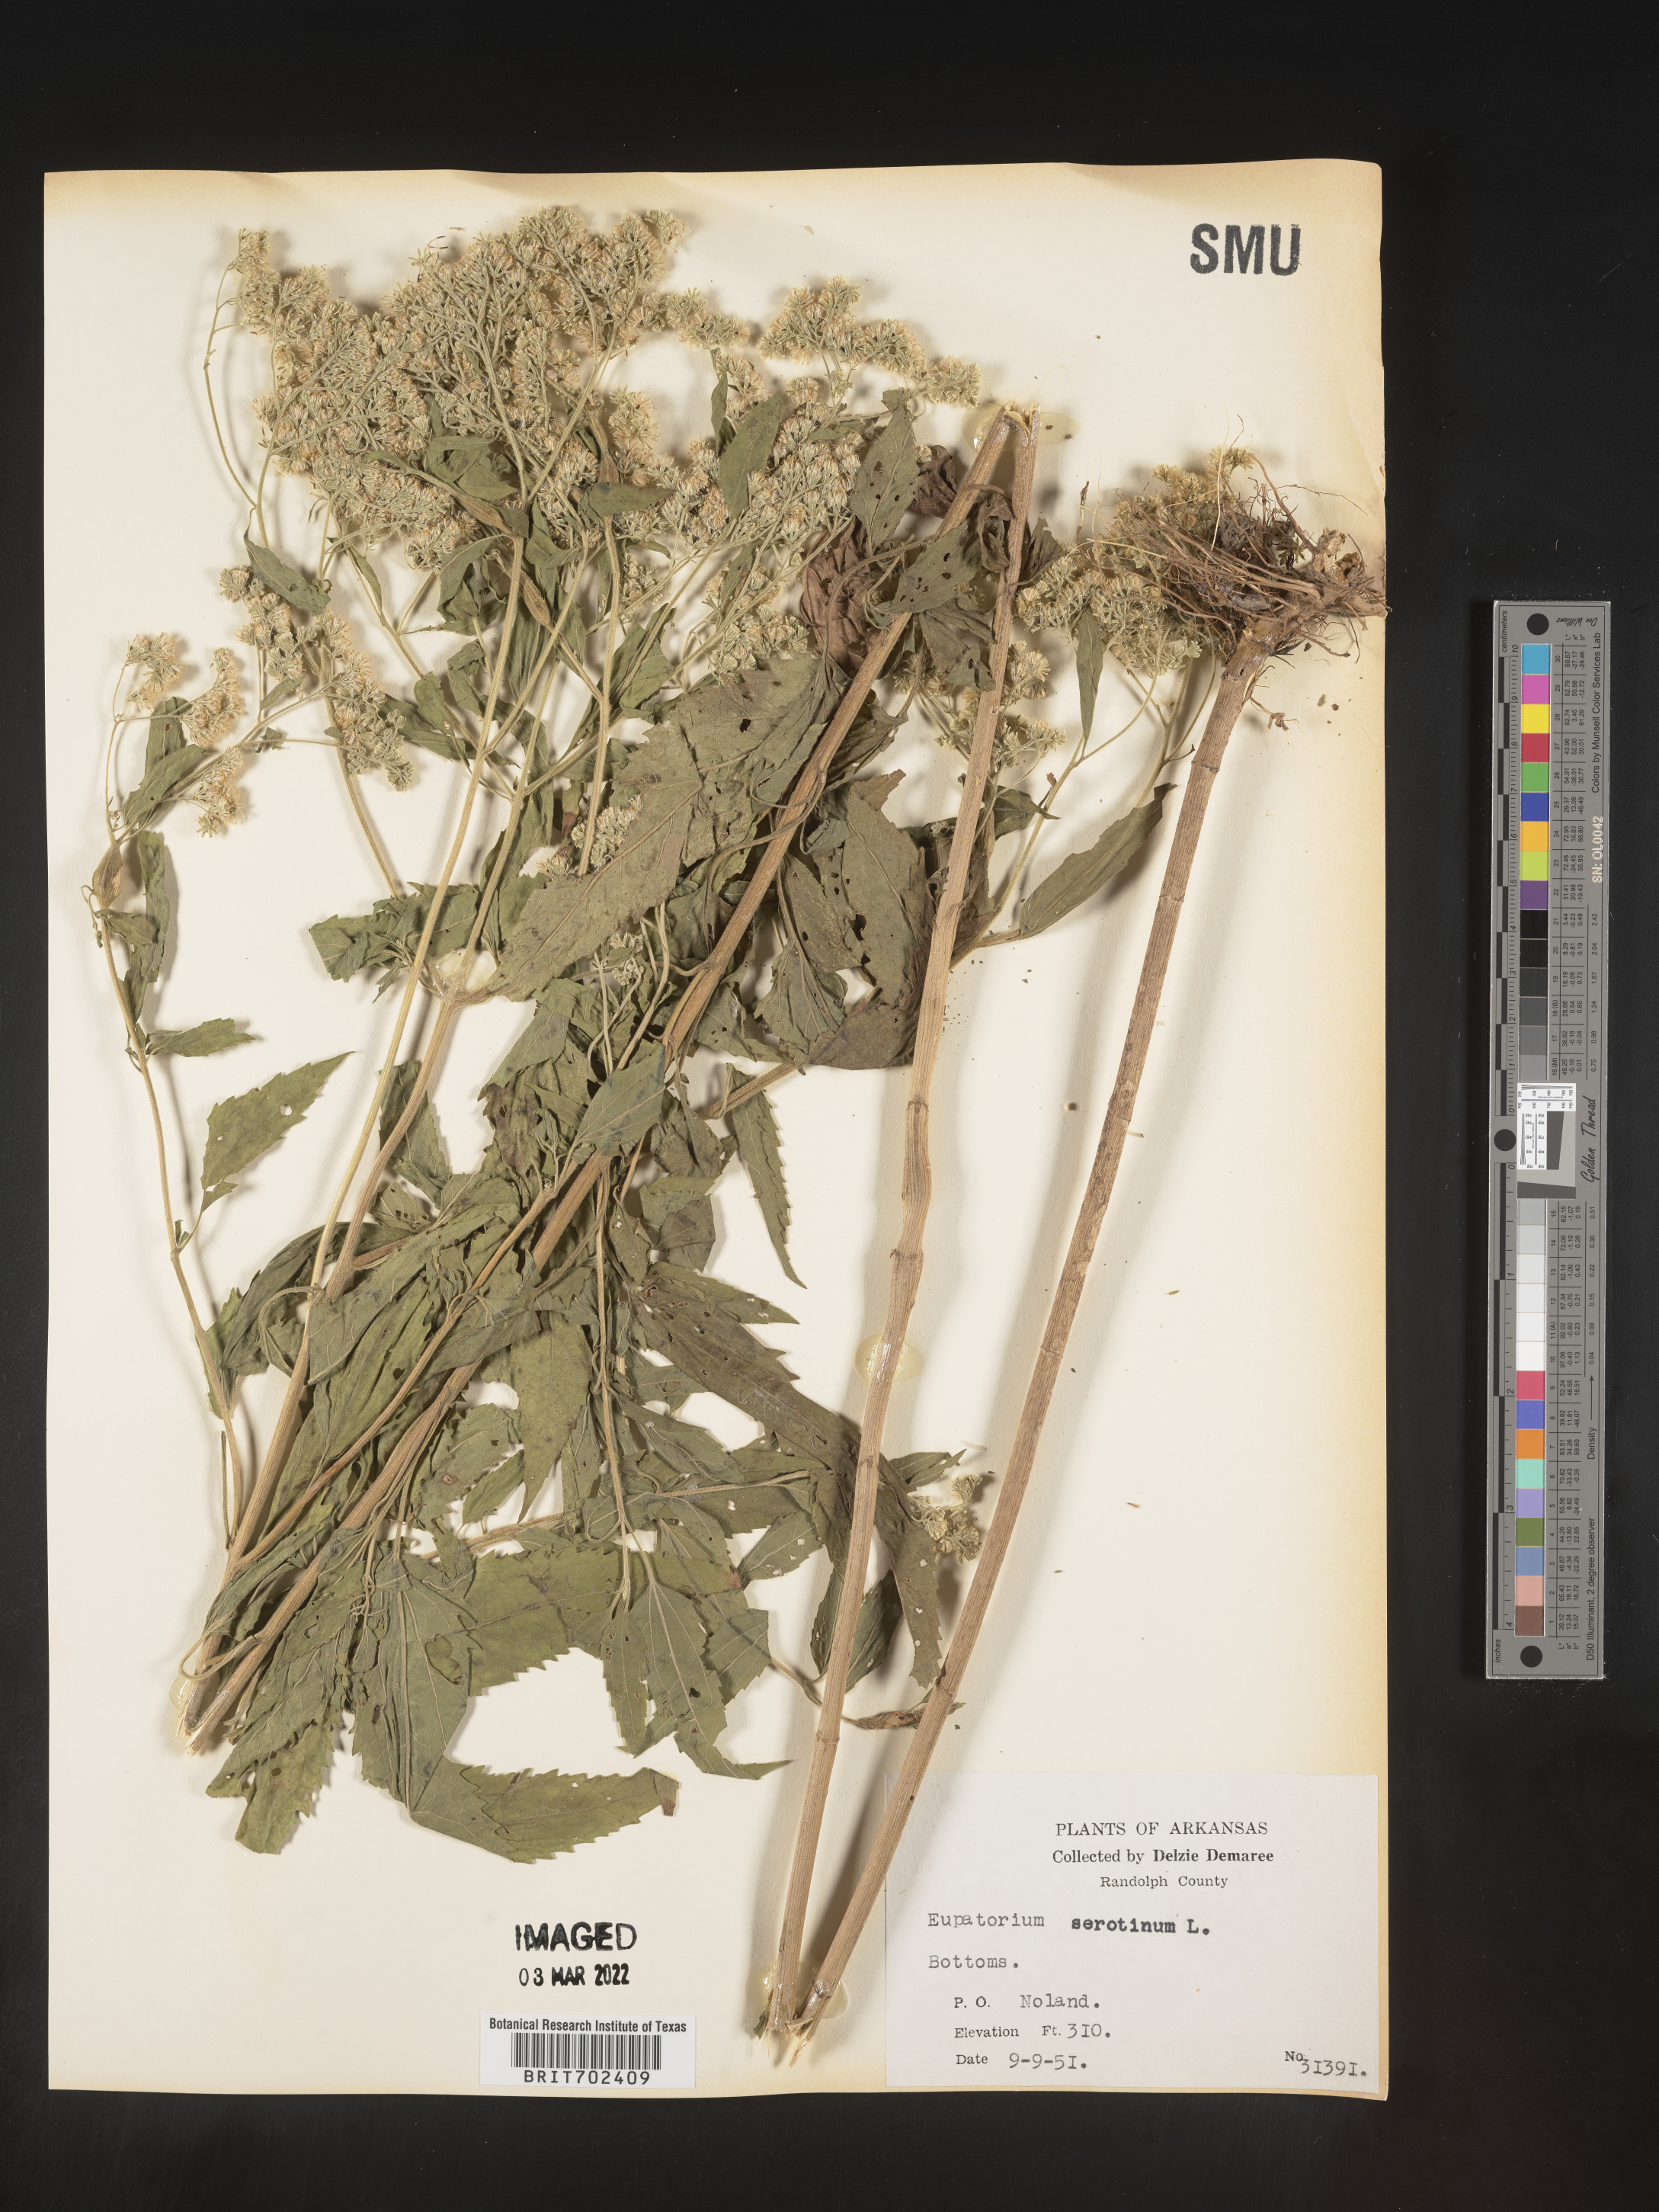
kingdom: Plantae
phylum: Tracheophyta
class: Magnoliopsida
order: Asterales
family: Asteraceae
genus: Eupatorium
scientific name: Eupatorium serotinum
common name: Late boneset
